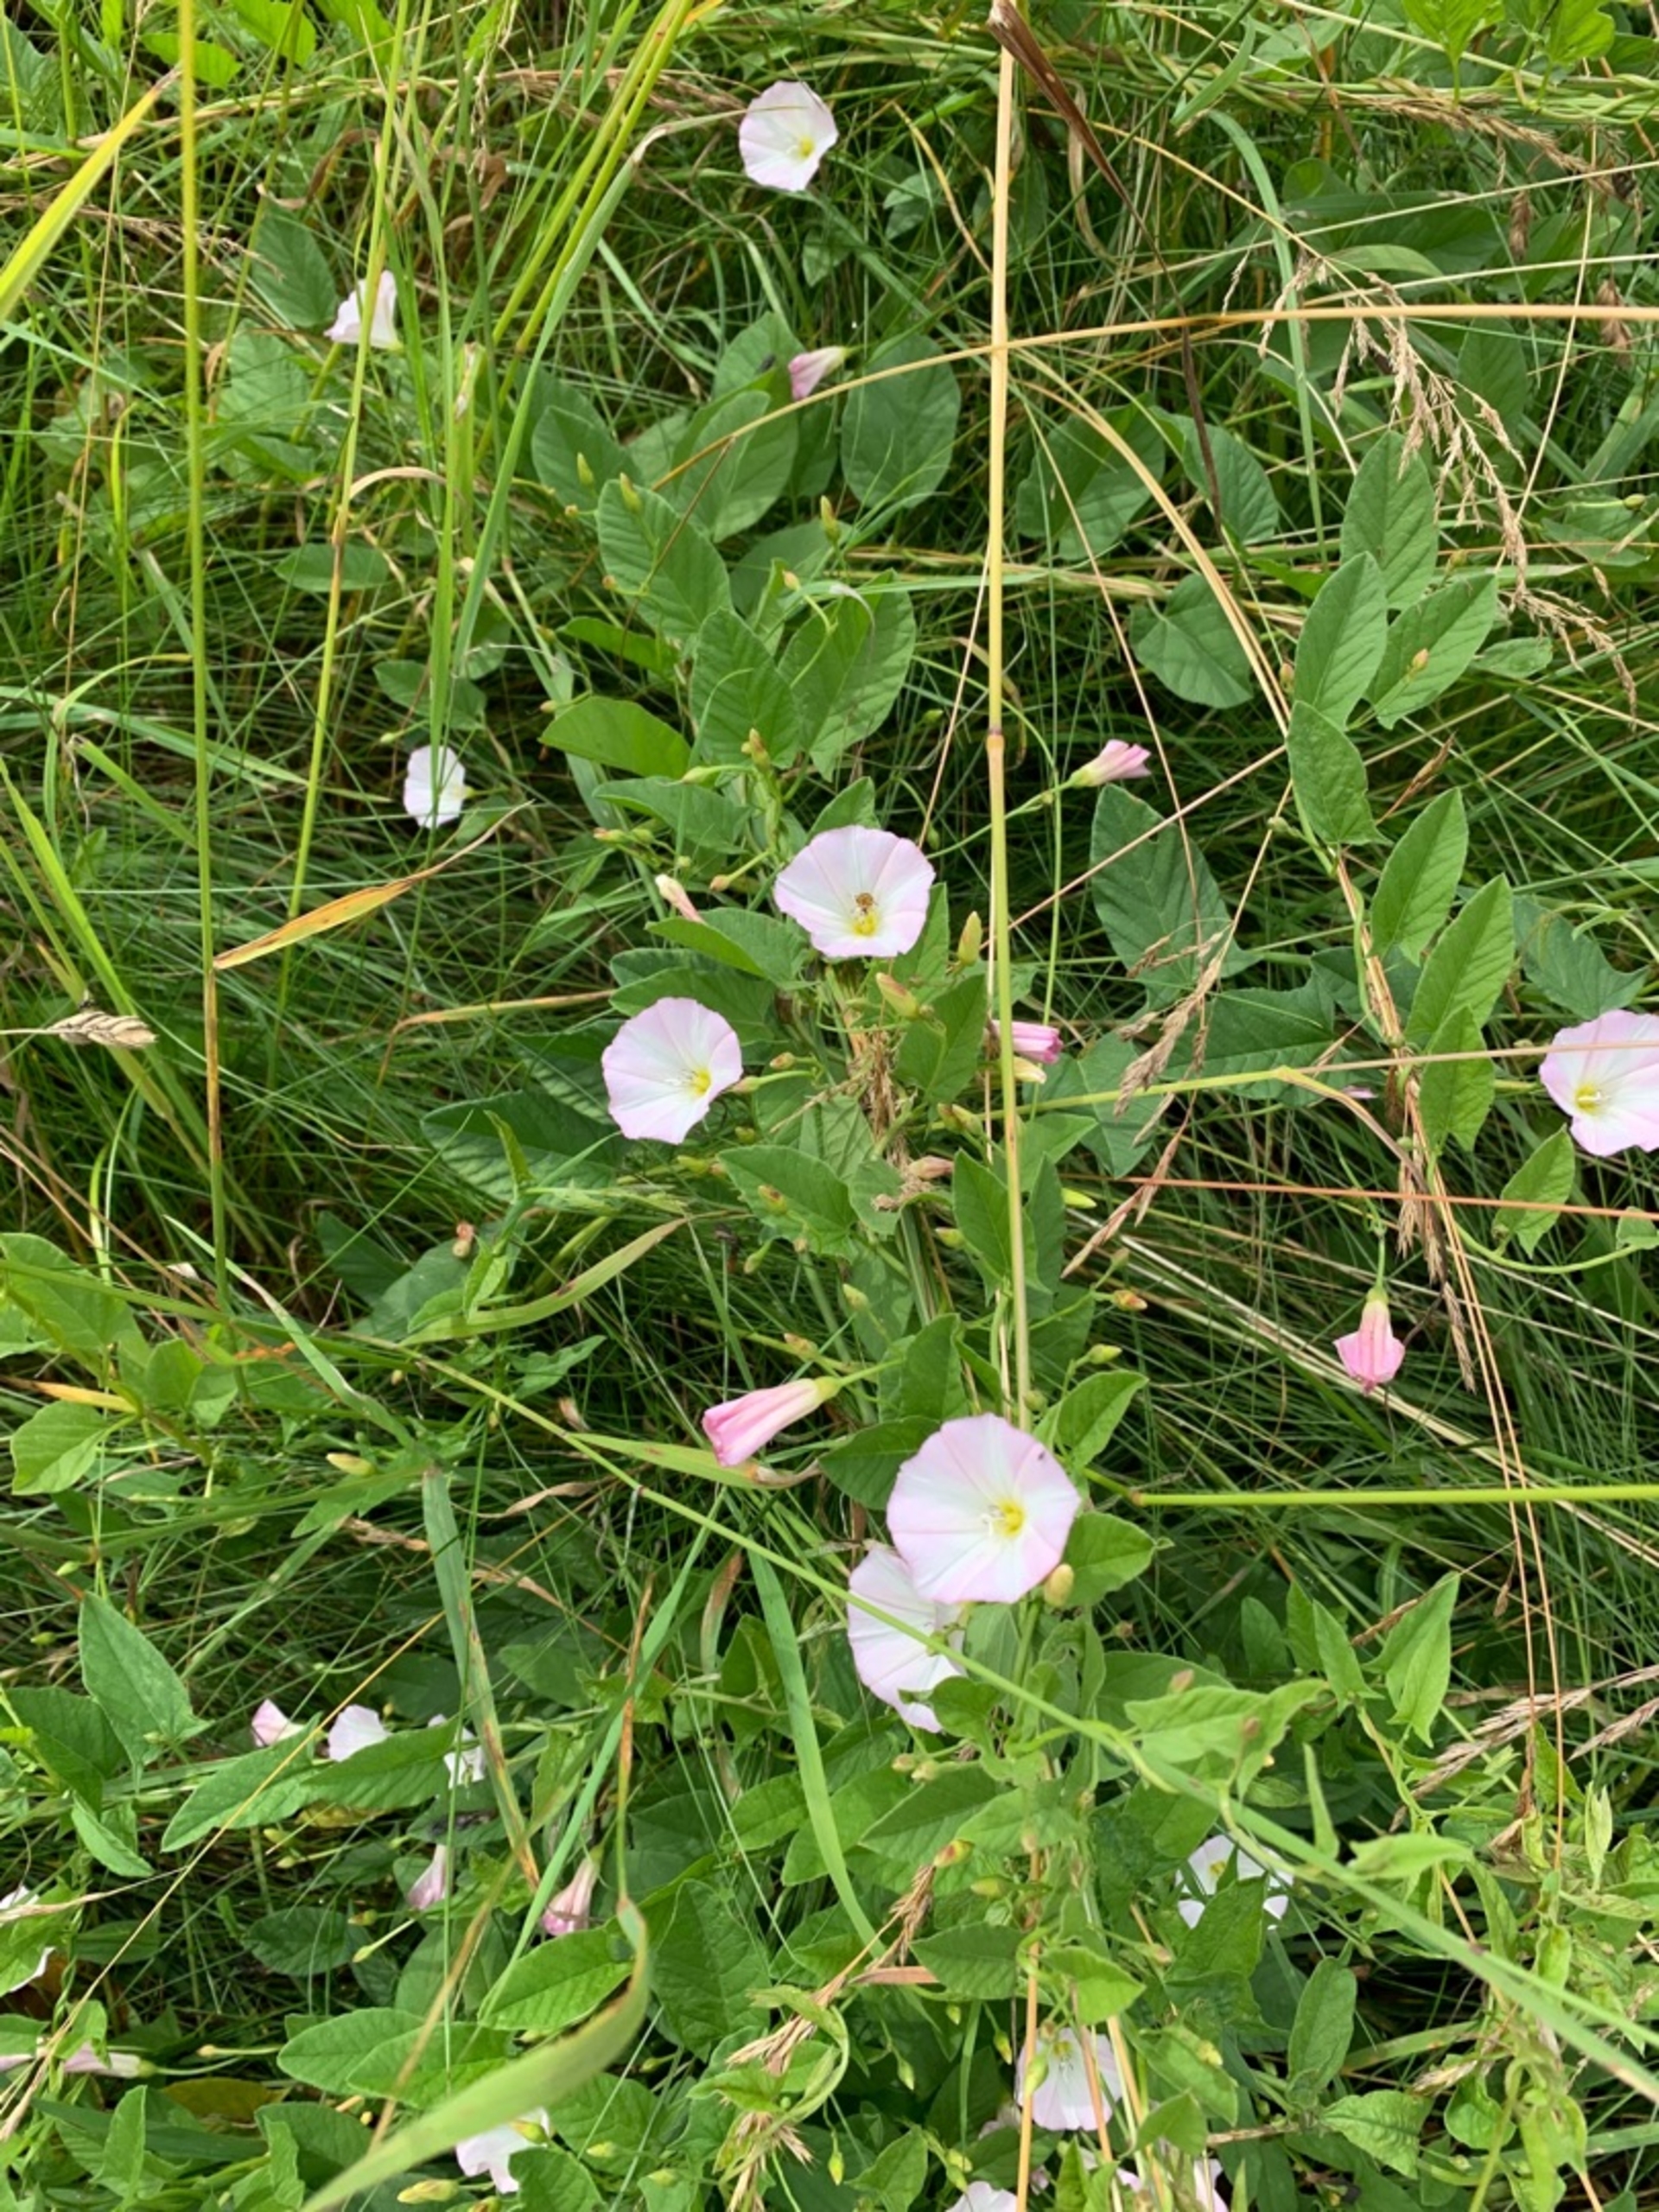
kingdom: Plantae
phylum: Tracheophyta
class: Magnoliopsida
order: Solanales
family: Convolvulaceae
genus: Convolvulus
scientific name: Convolvulus arvensis
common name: Ager-snerle
